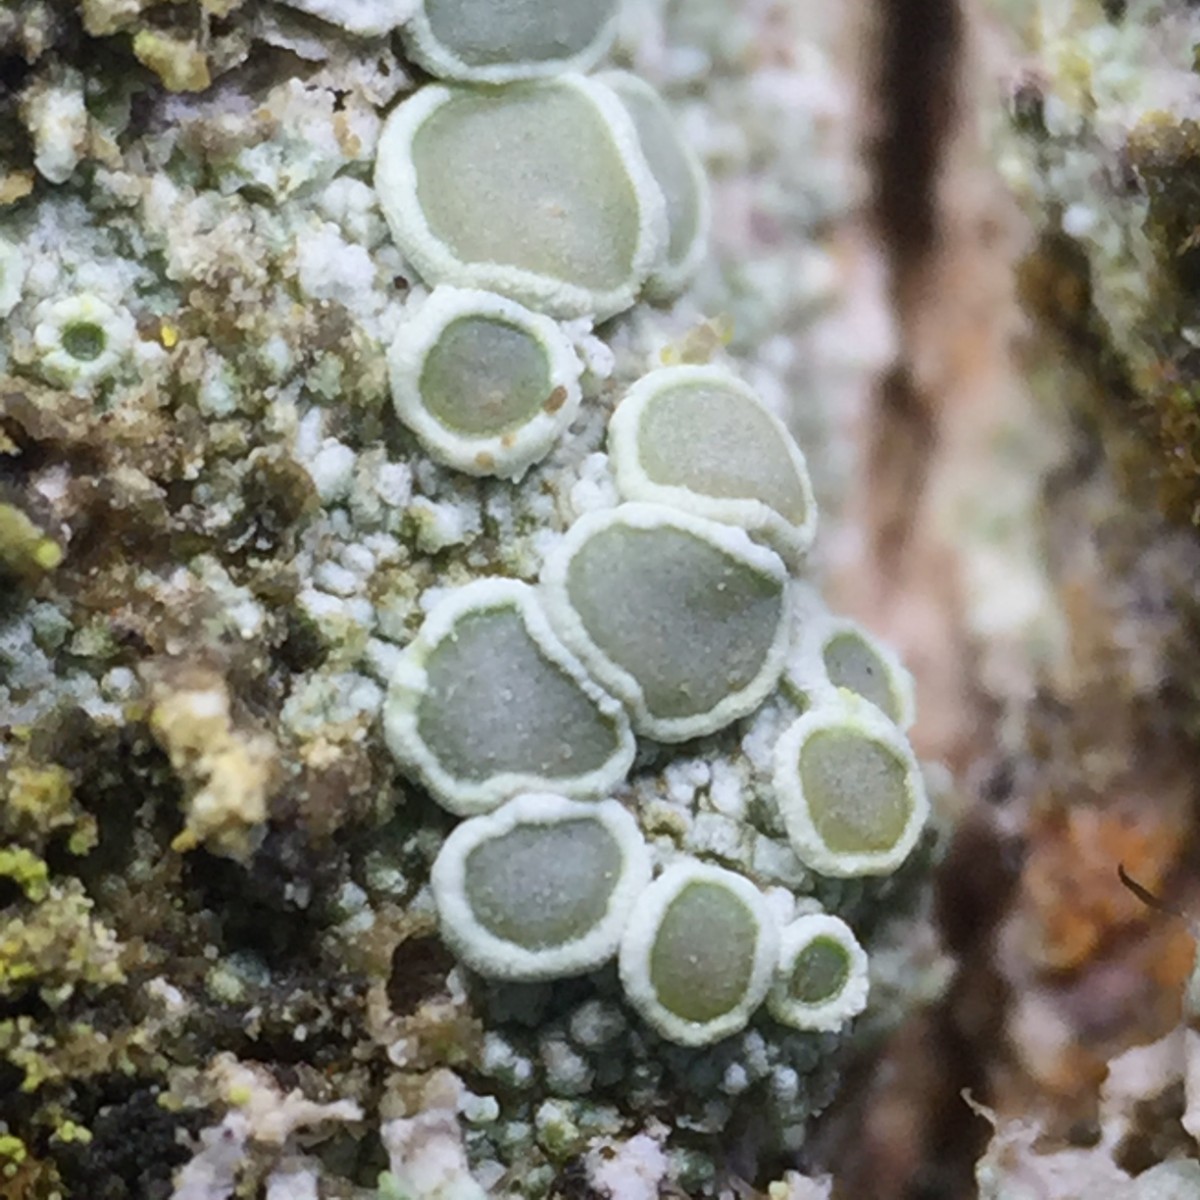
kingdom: Fungi
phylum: Ascomycota
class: Lecanoromycetes
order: Lecanorales
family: Lecanoraceae
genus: Lecanora
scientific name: Lecanora chlarotera
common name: brun kantskivelav
